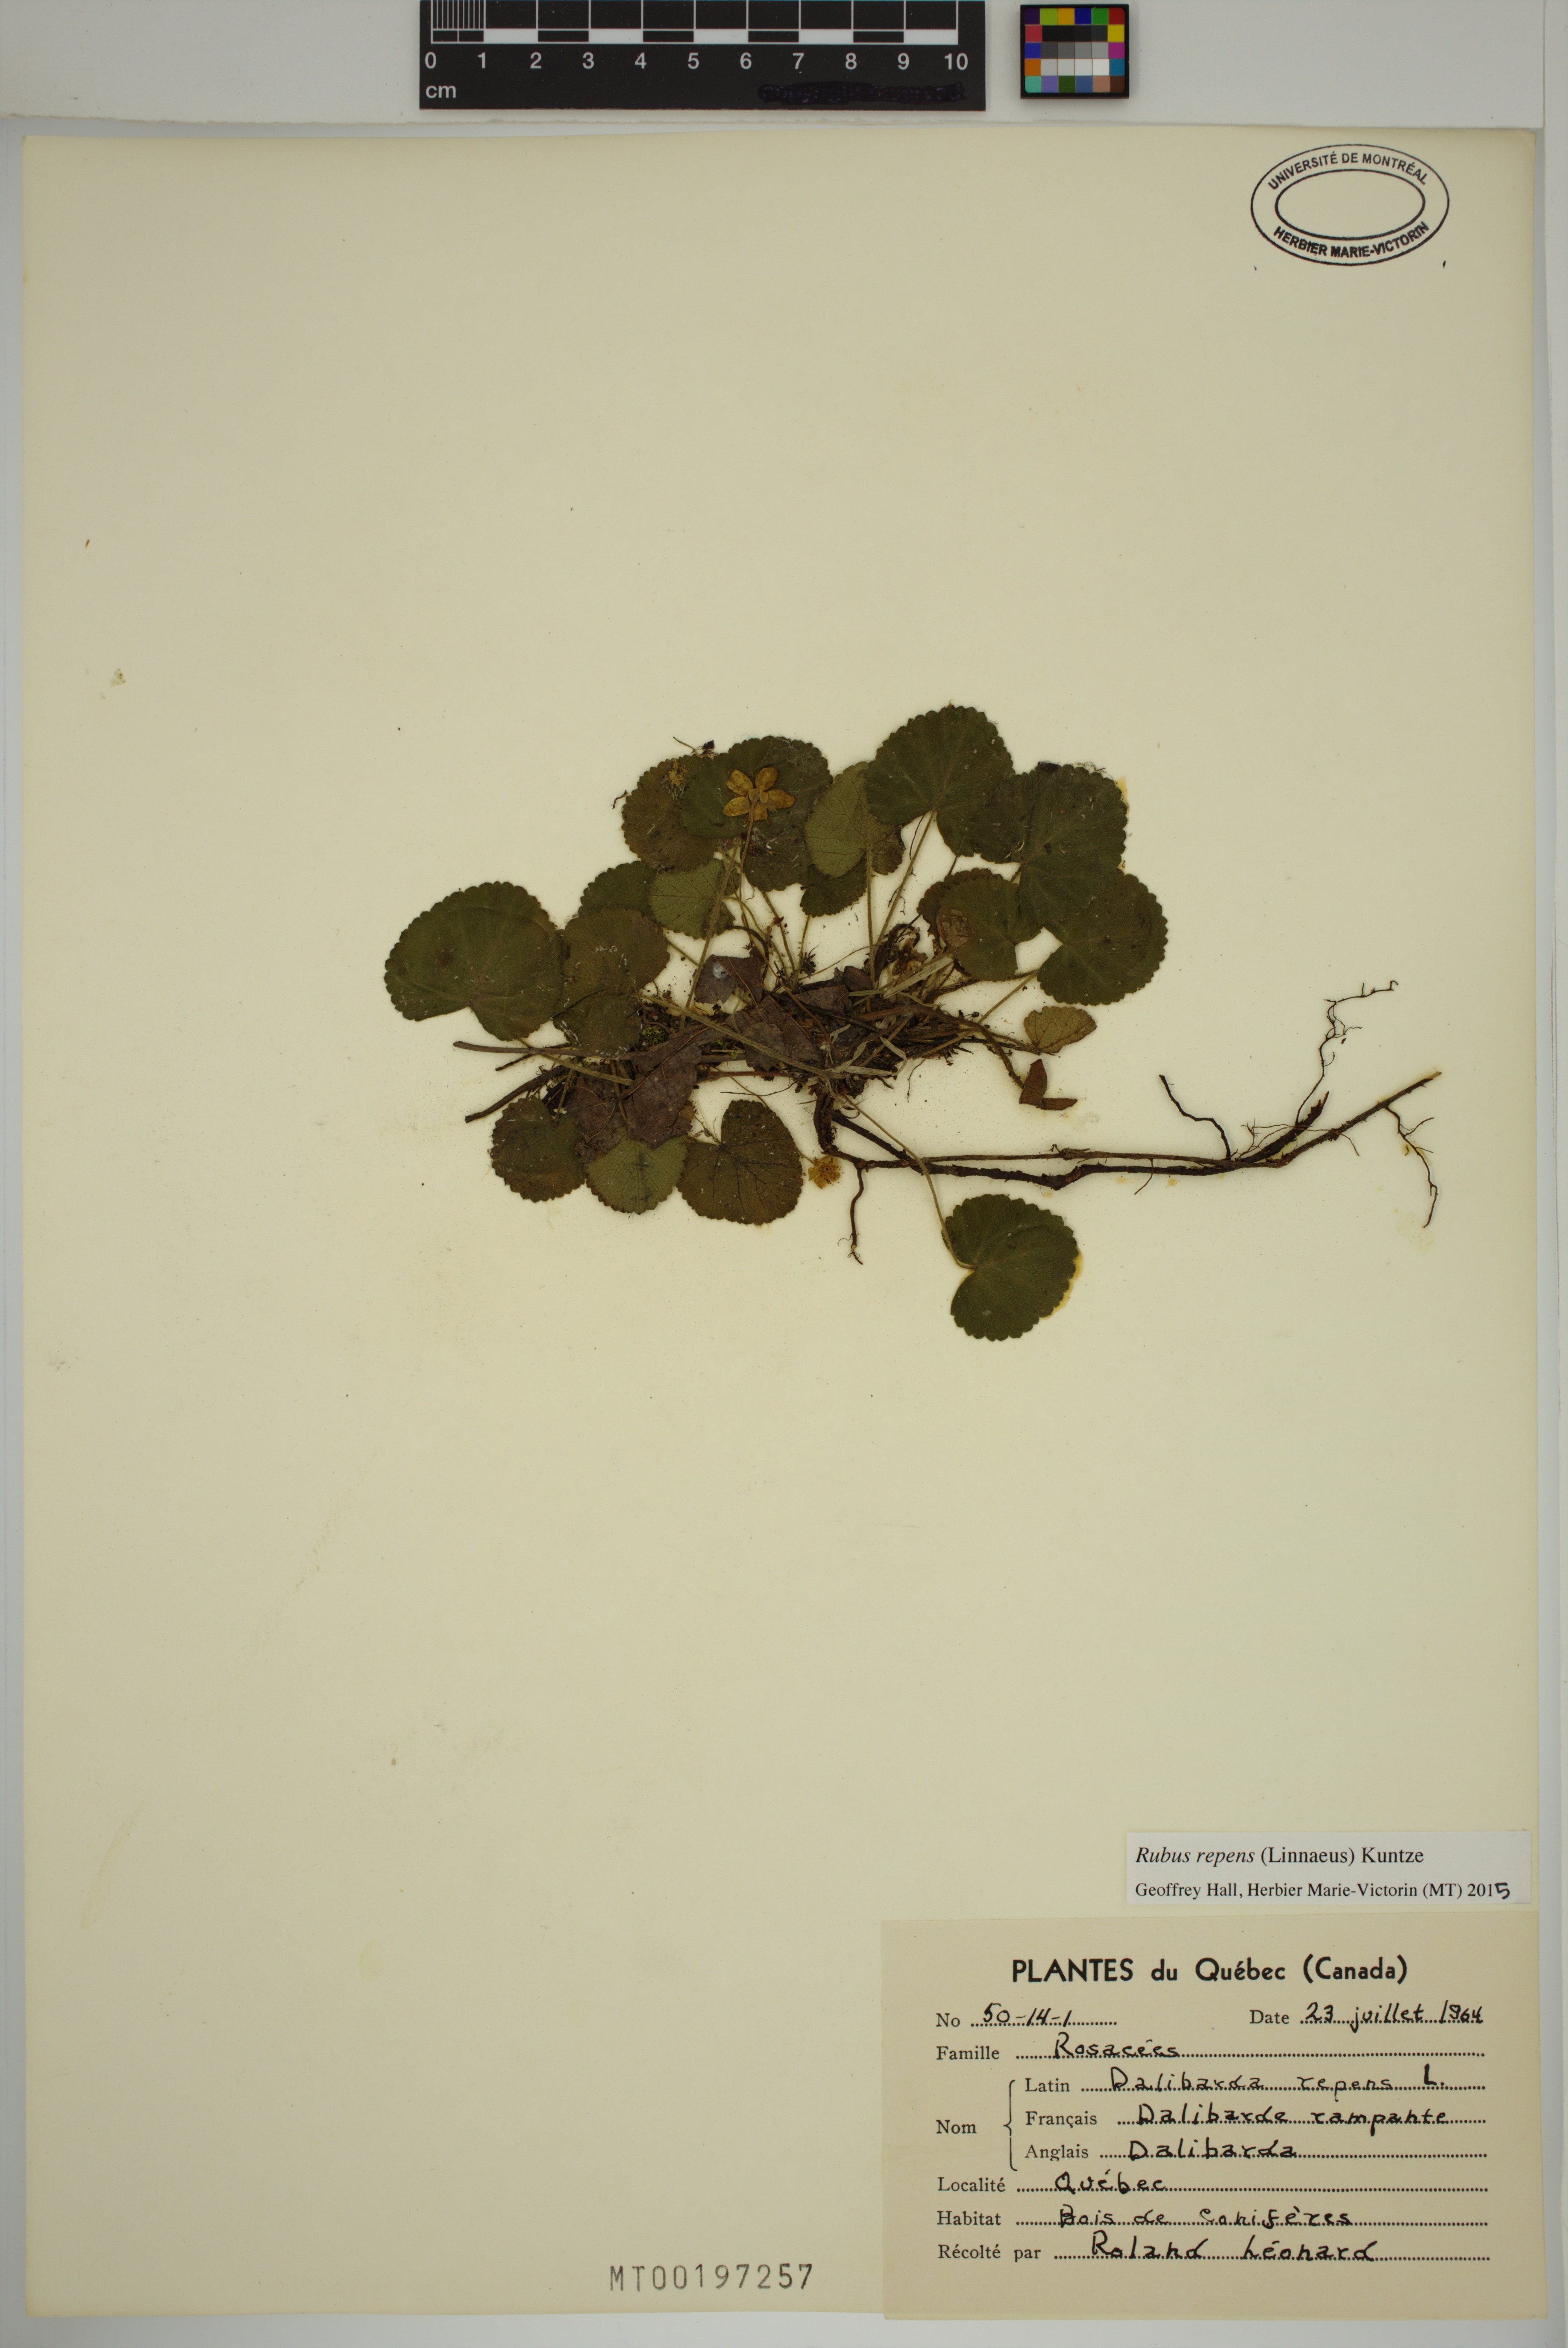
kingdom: Plantae
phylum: Tracheophyta
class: Magnoliopsida
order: Rosales
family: Rosaceae
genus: Dalibarda
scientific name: Dalibarda repens
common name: Dewdrop
